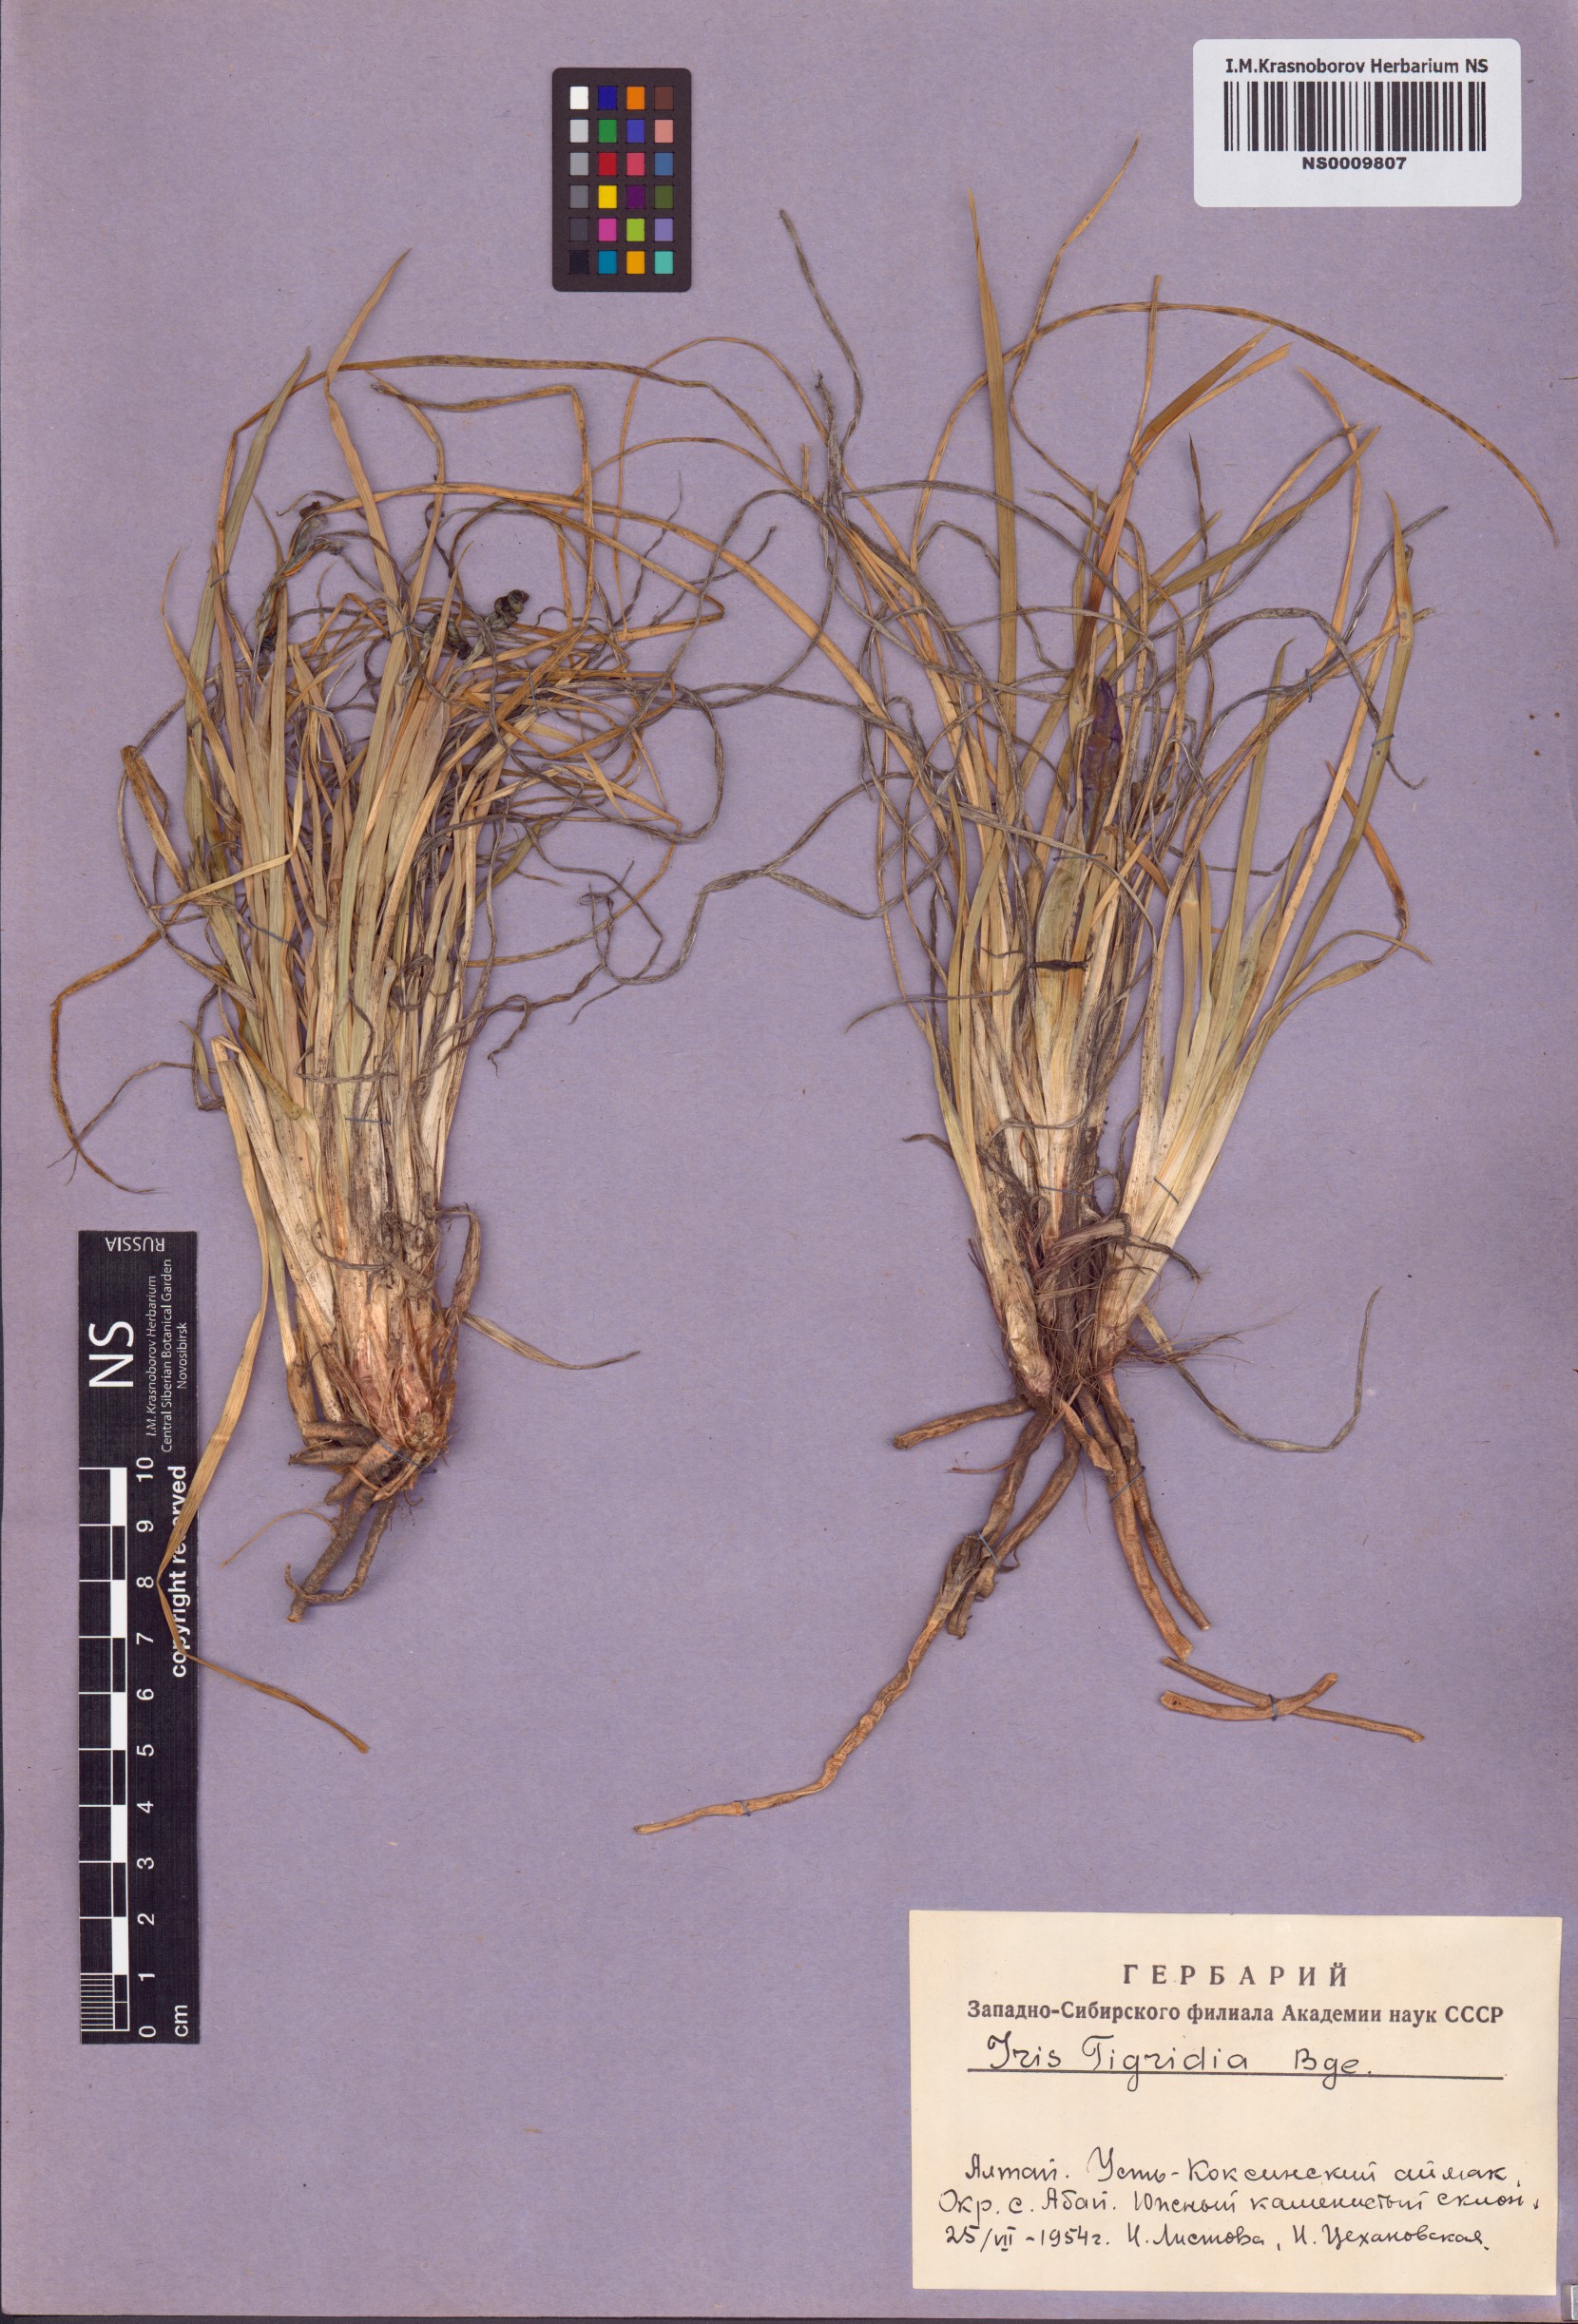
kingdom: Plantae
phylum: Tracheophyta
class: Liliopsida
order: Asparagales
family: Iridaceae
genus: Iris
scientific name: Iris tigridia
